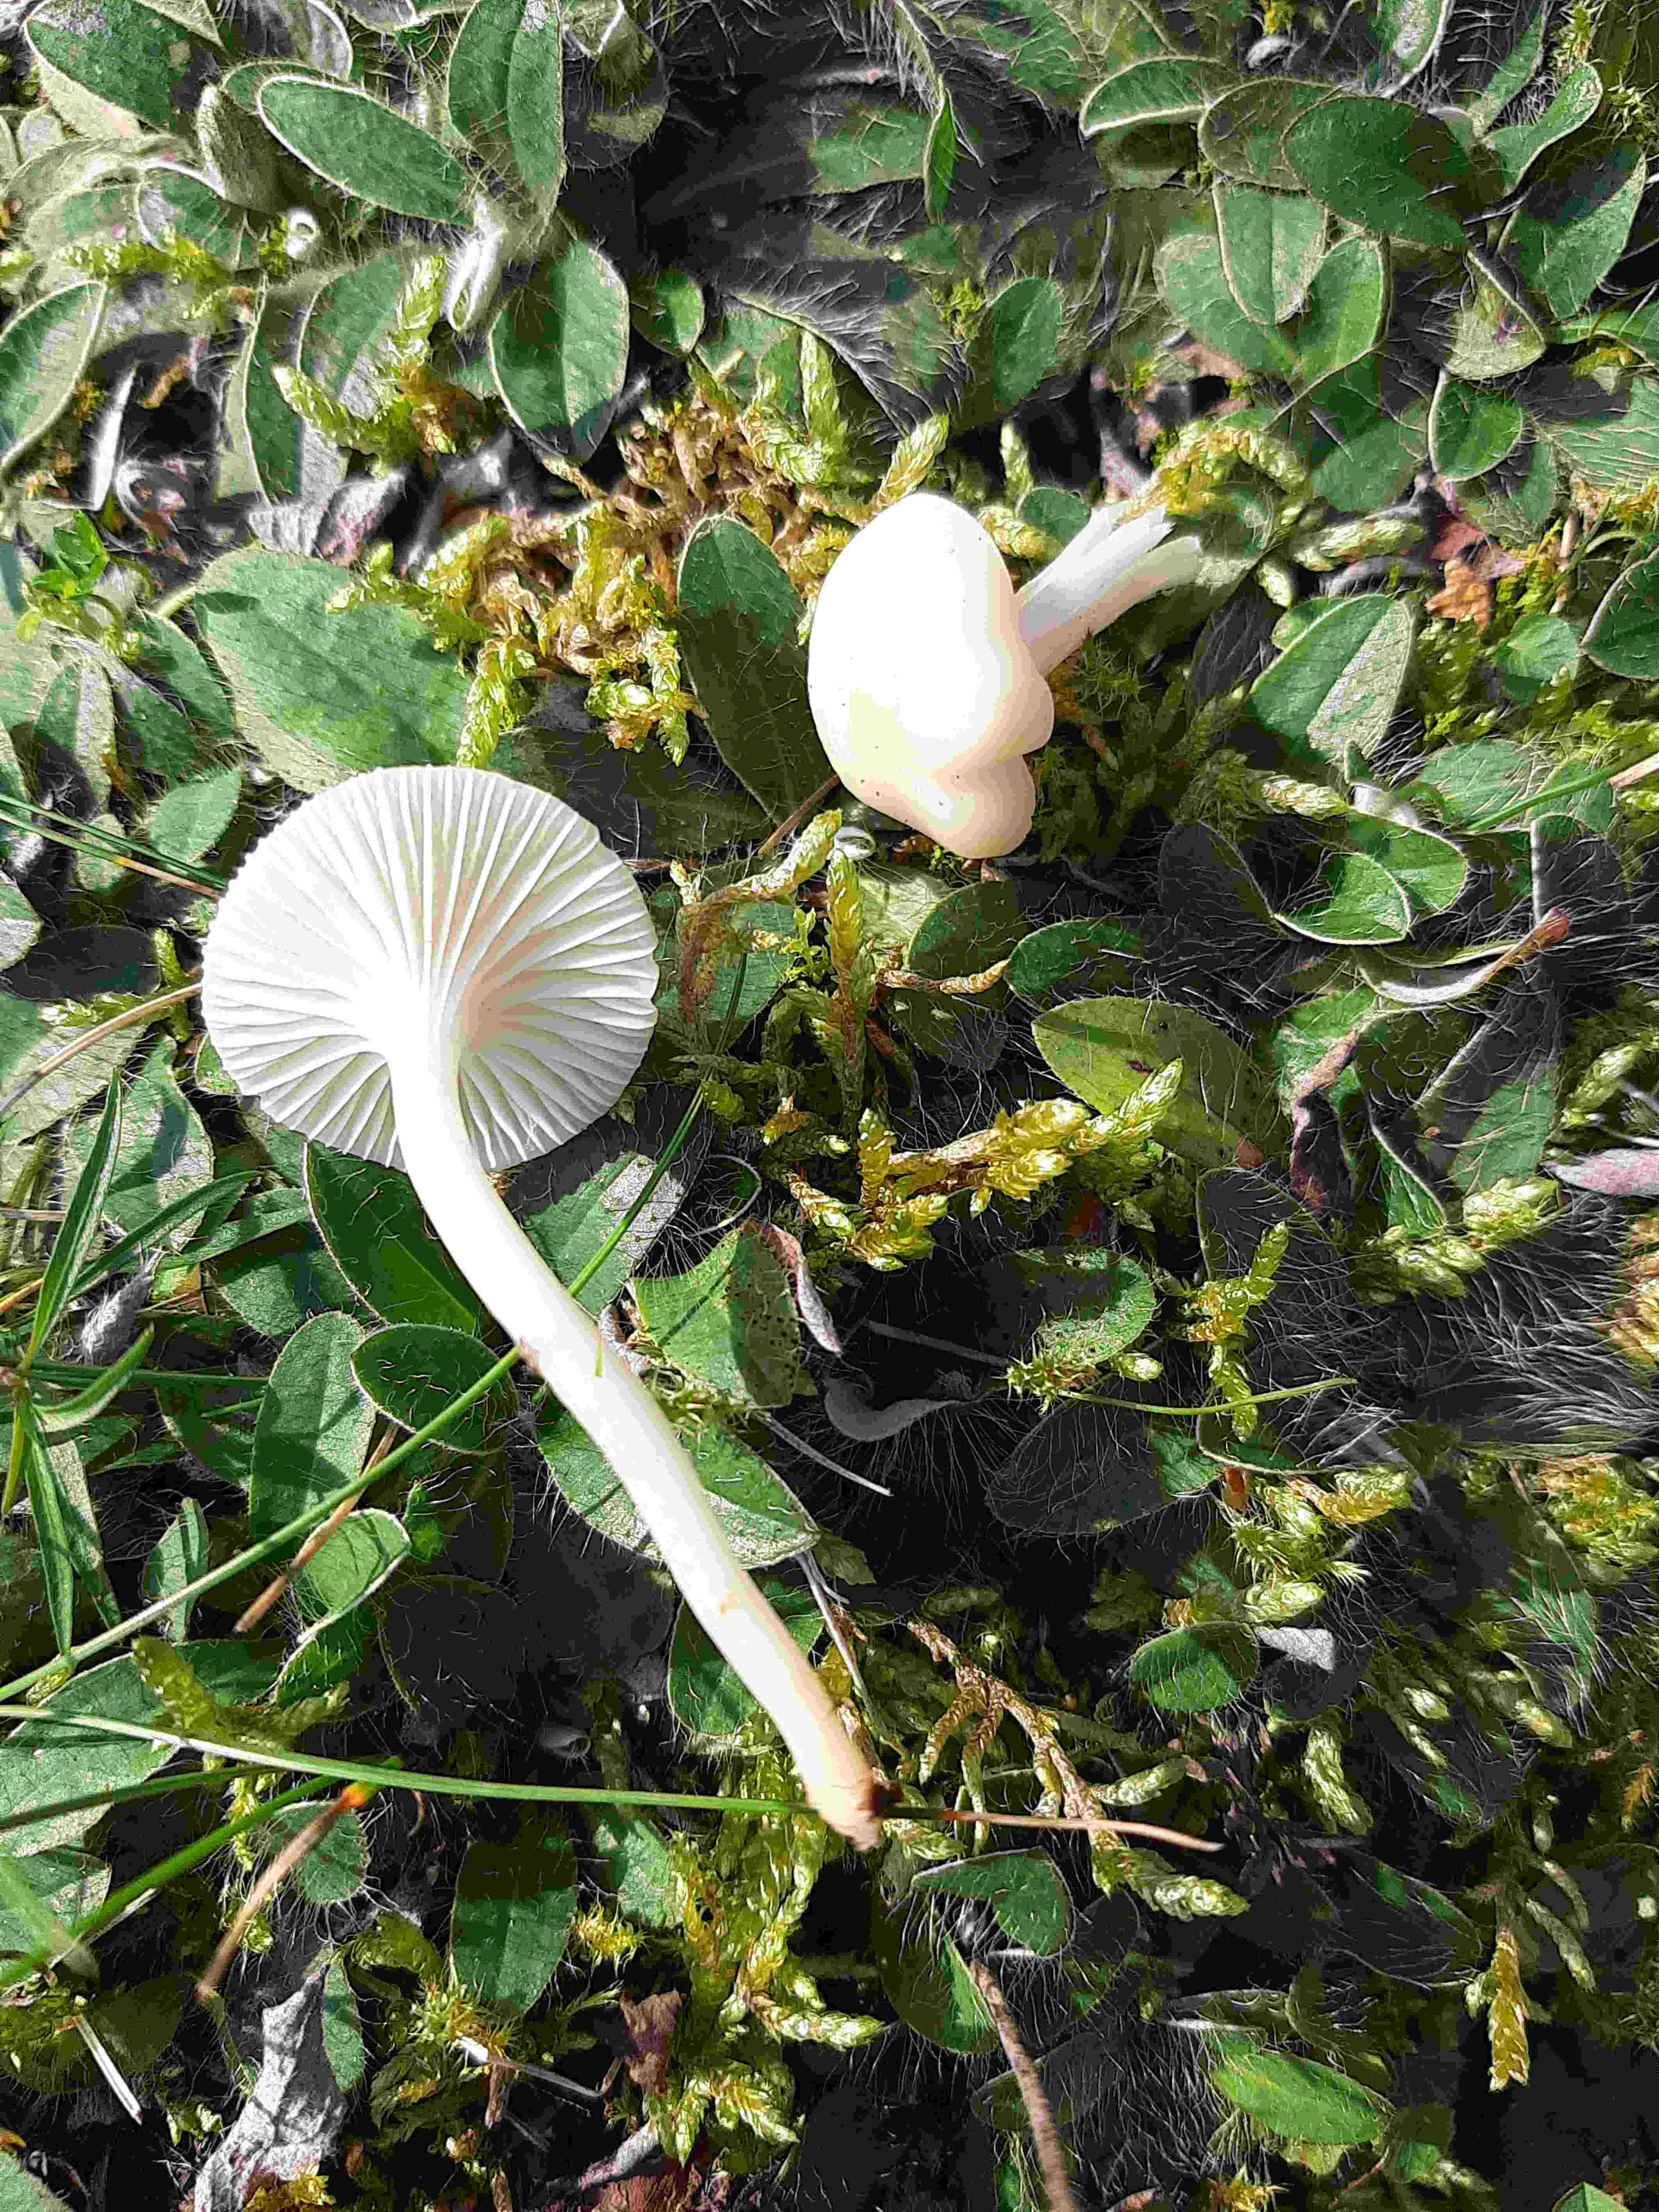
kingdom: Fungi
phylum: Basidiomycota
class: Agaricomycetes
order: Agaricales
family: Hygrophoraceae
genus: Cuphophyllus
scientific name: Cuphophyllus virgineus
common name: snehvid vokshat
